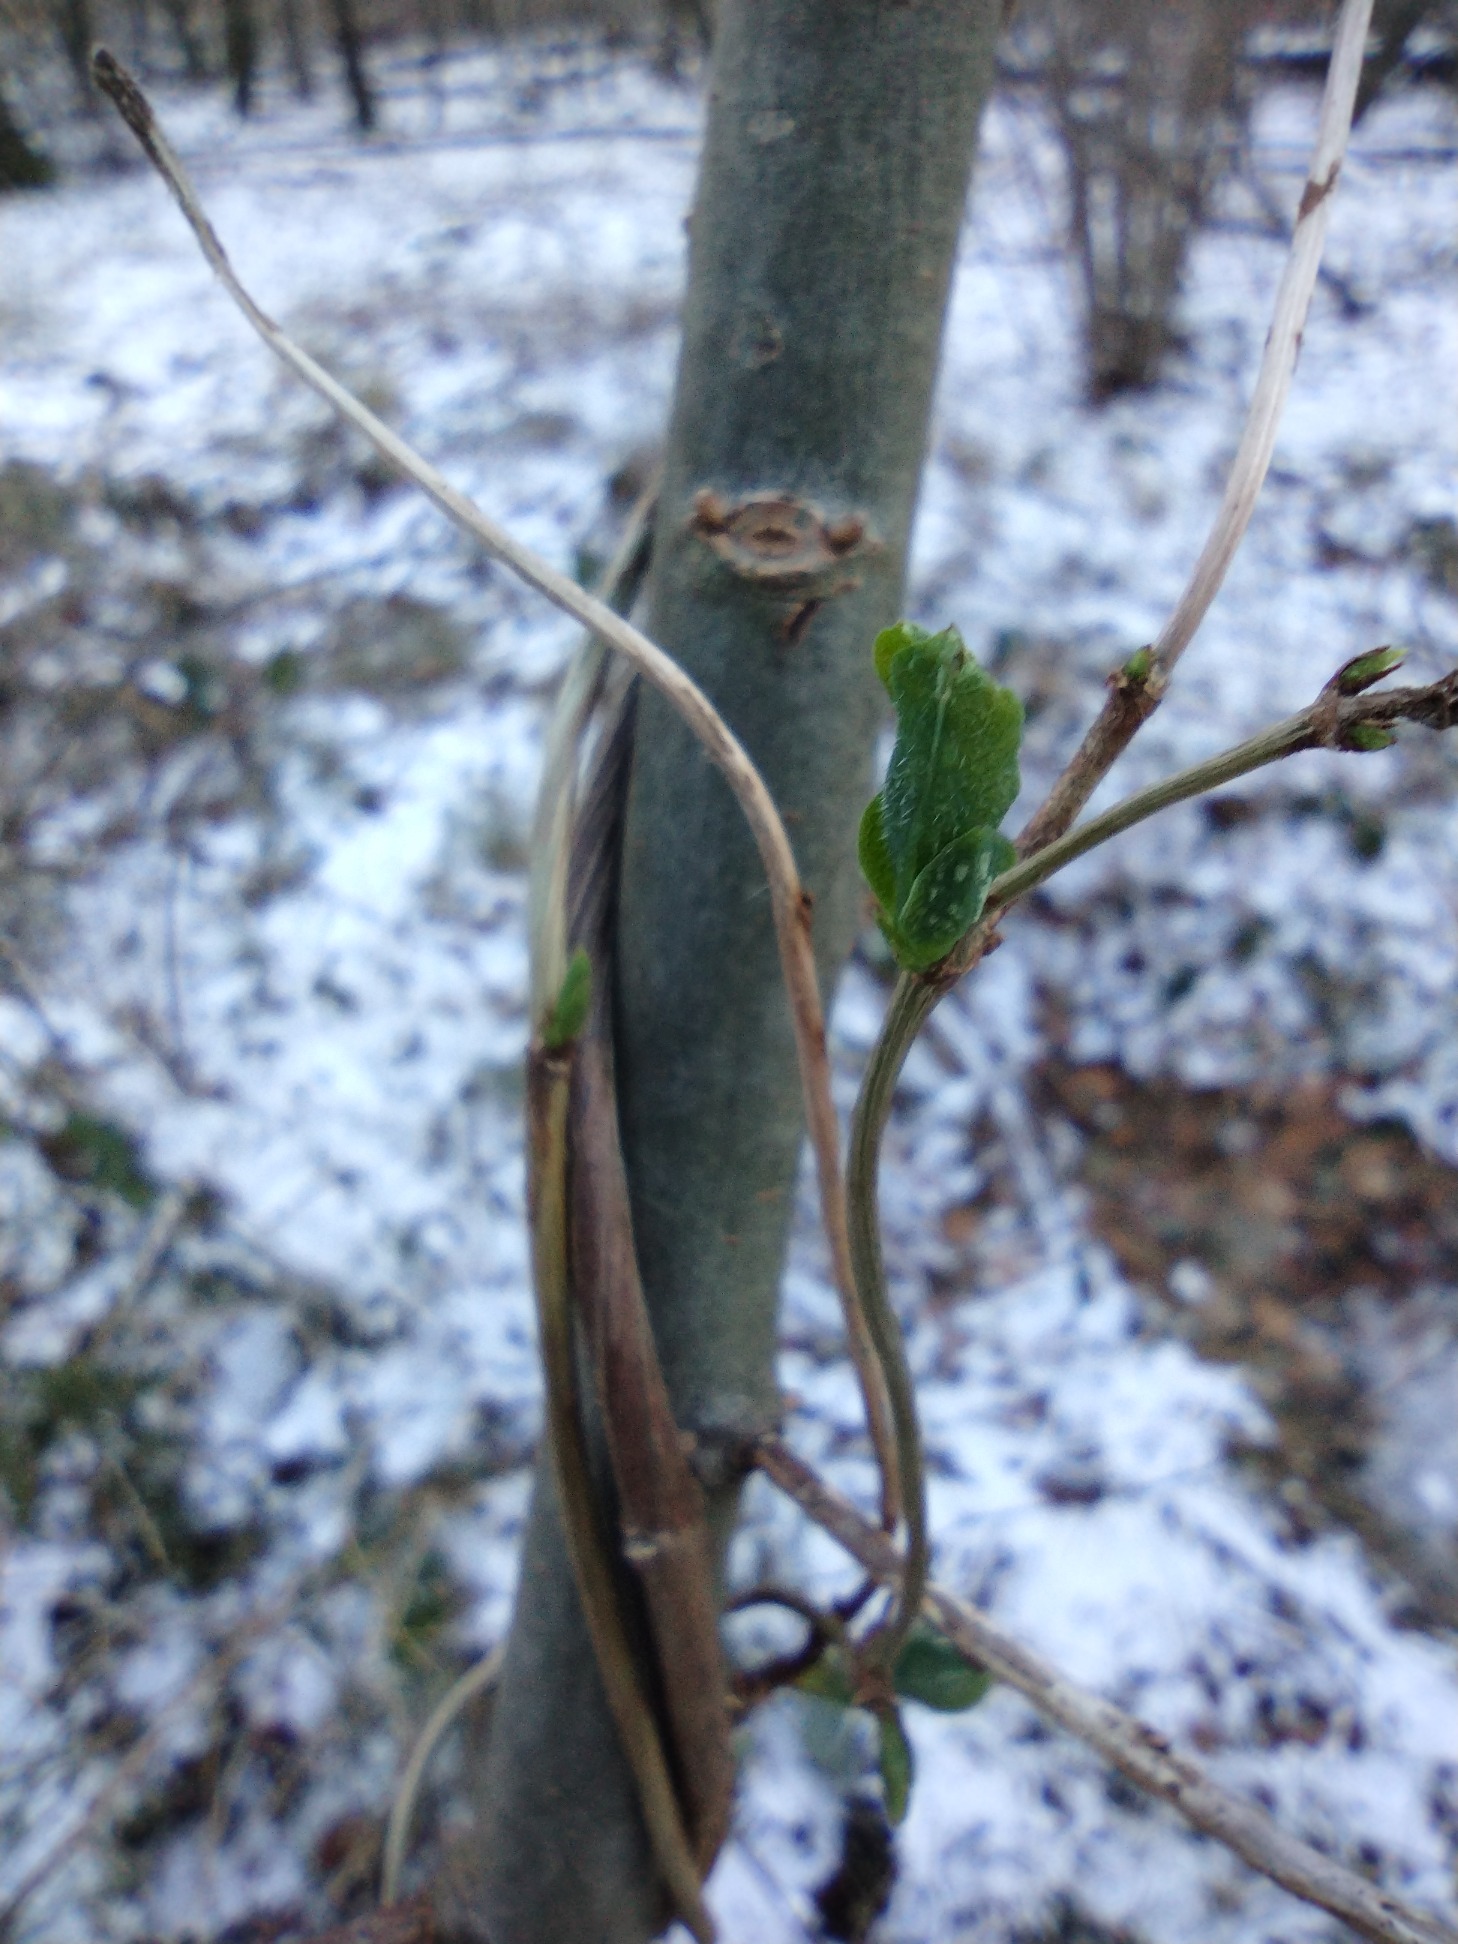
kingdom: Plantae
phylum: Tracheophyta
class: Magnoliopsida
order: Dipsacales
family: Caprifoliaceae
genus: Lonicera
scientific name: Lonicera periclymenum
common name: Almindelig gedeblad
